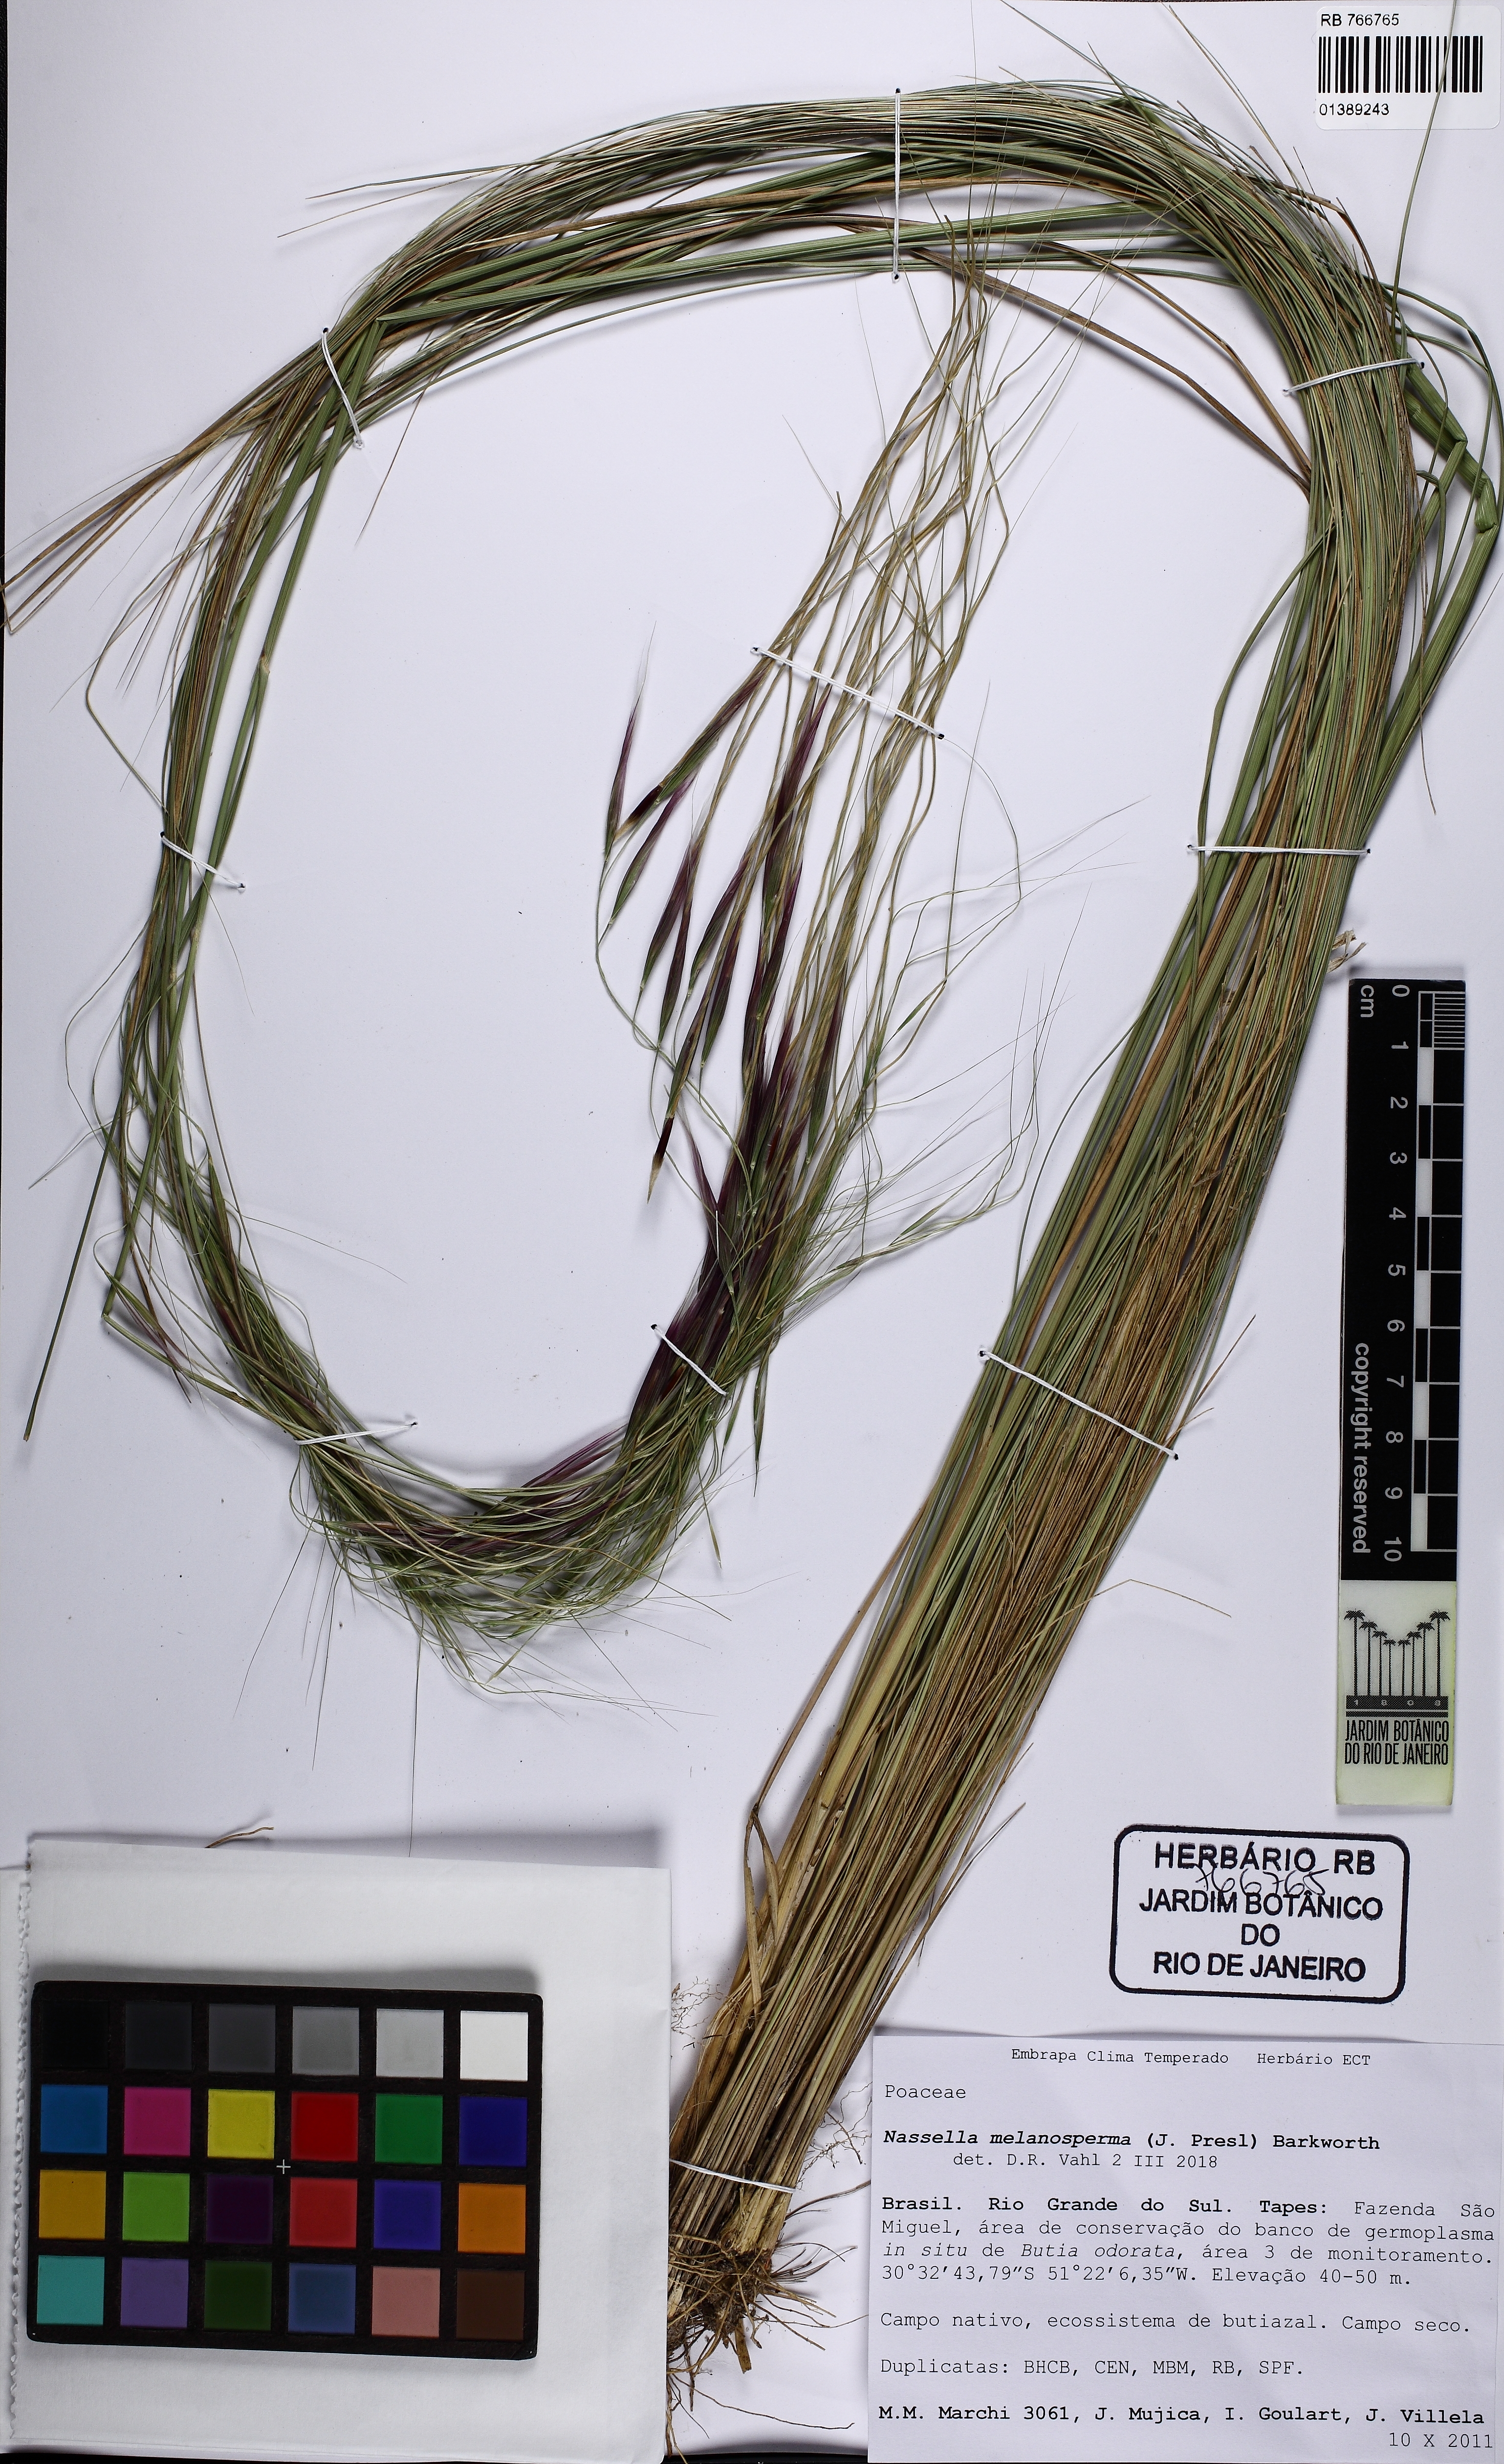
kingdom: Plantae
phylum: Tracheophyta
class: Liliopsida
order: Poales
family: Poaceae
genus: Nassella
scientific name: Nassella melanosperma
